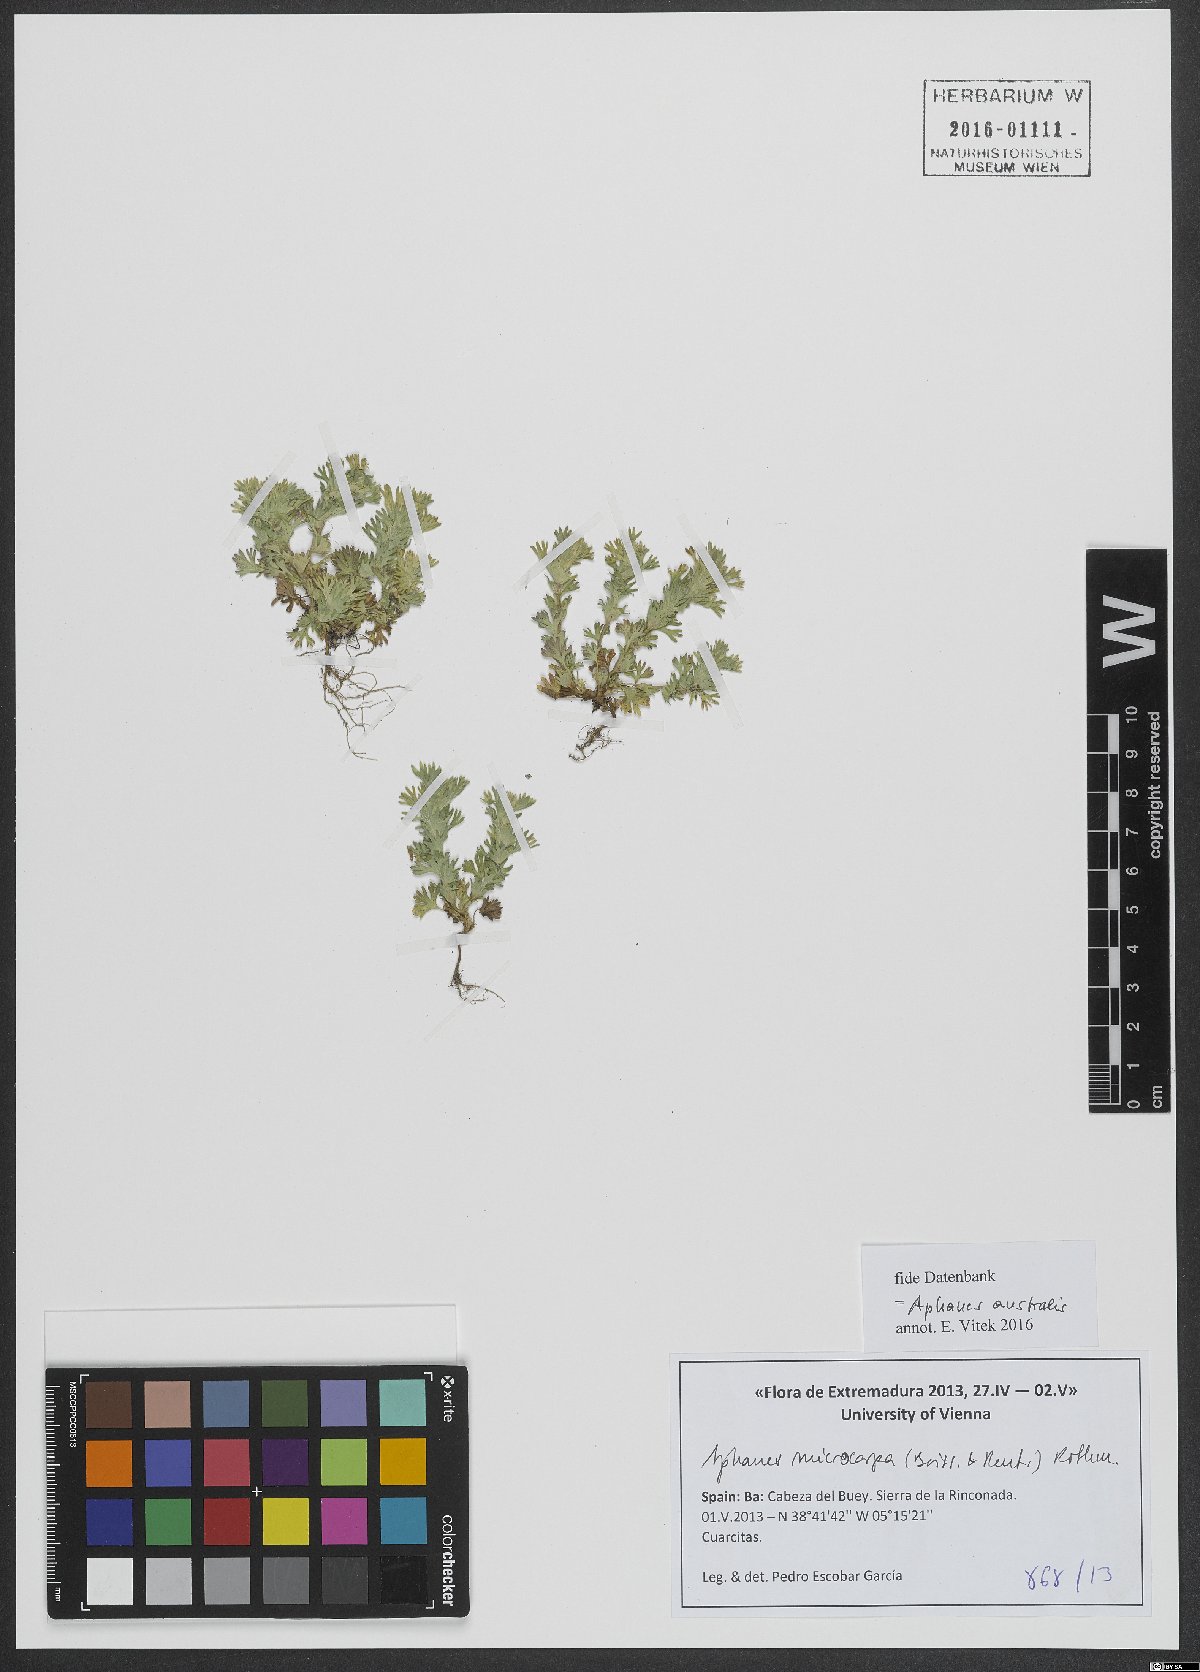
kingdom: Plantae
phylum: Tracheophyta
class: Magnoliopsida
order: Rosales
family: Rosaceae
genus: Aphanes
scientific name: Aphanes microcarpa
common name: Slender parsley piert
